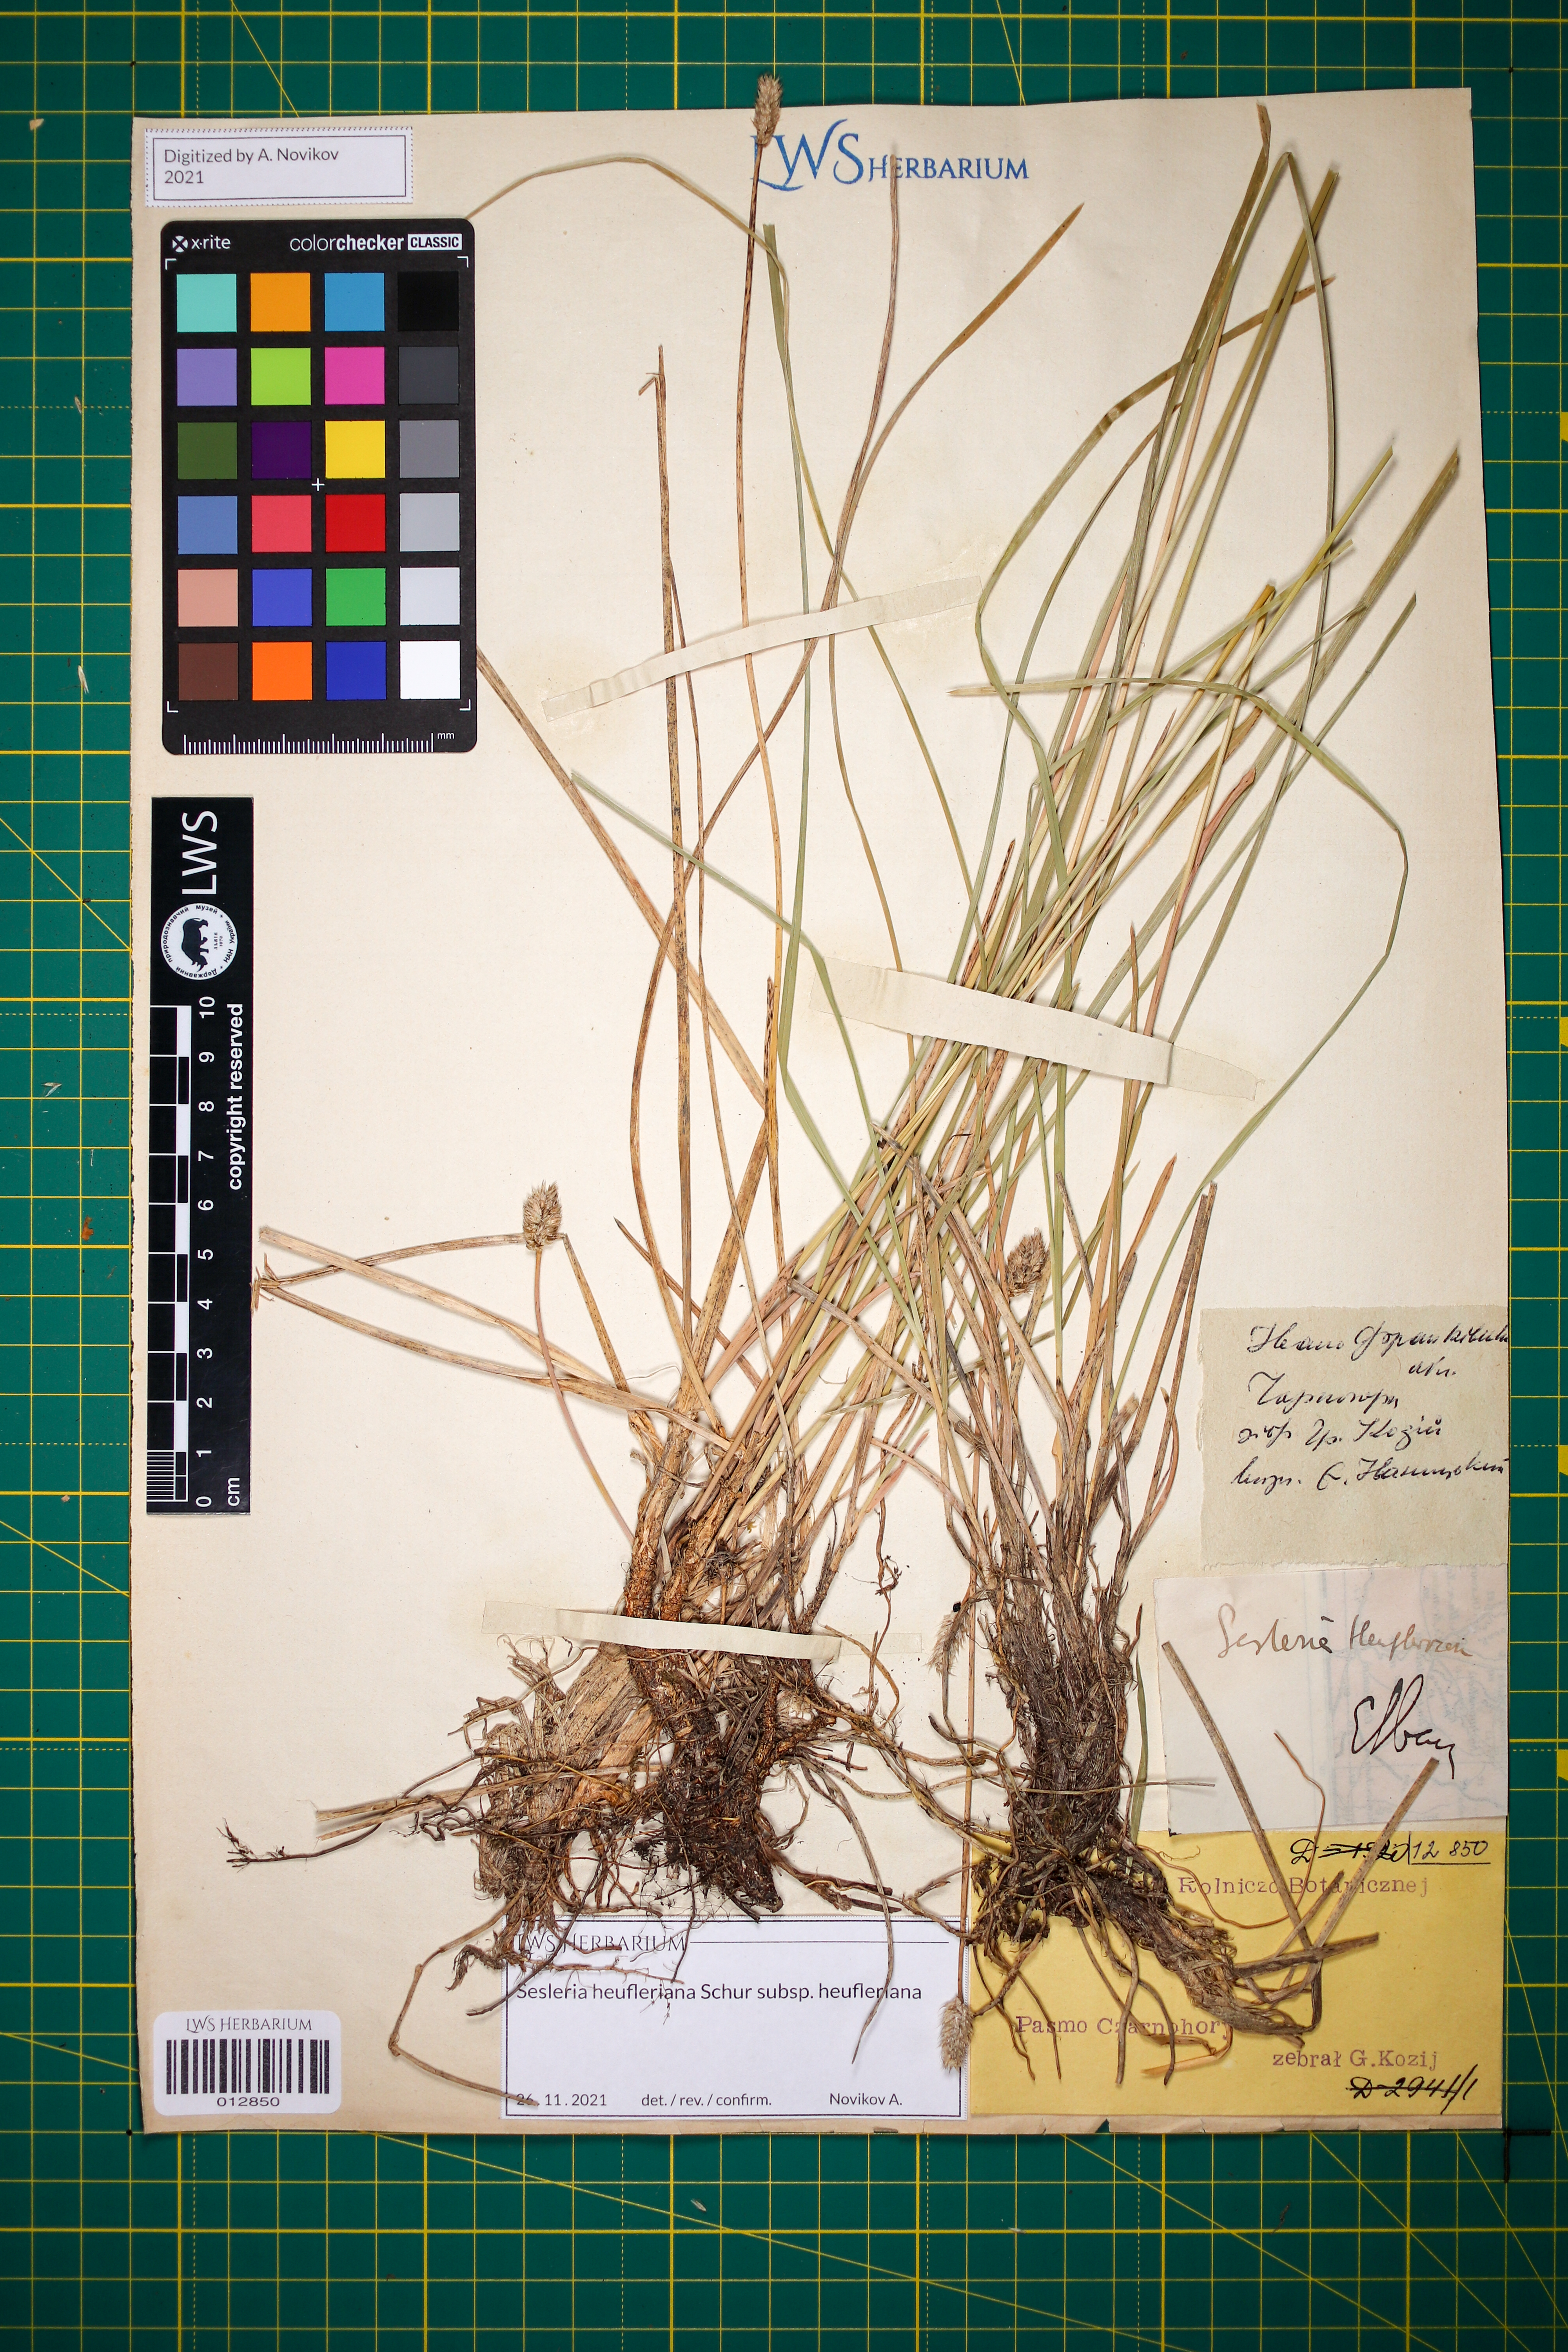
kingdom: Plantae
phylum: Tracheophyta
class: Liliopsida
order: Poales
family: Poaceae
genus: Sesleria
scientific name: Sesleria heufleriana
